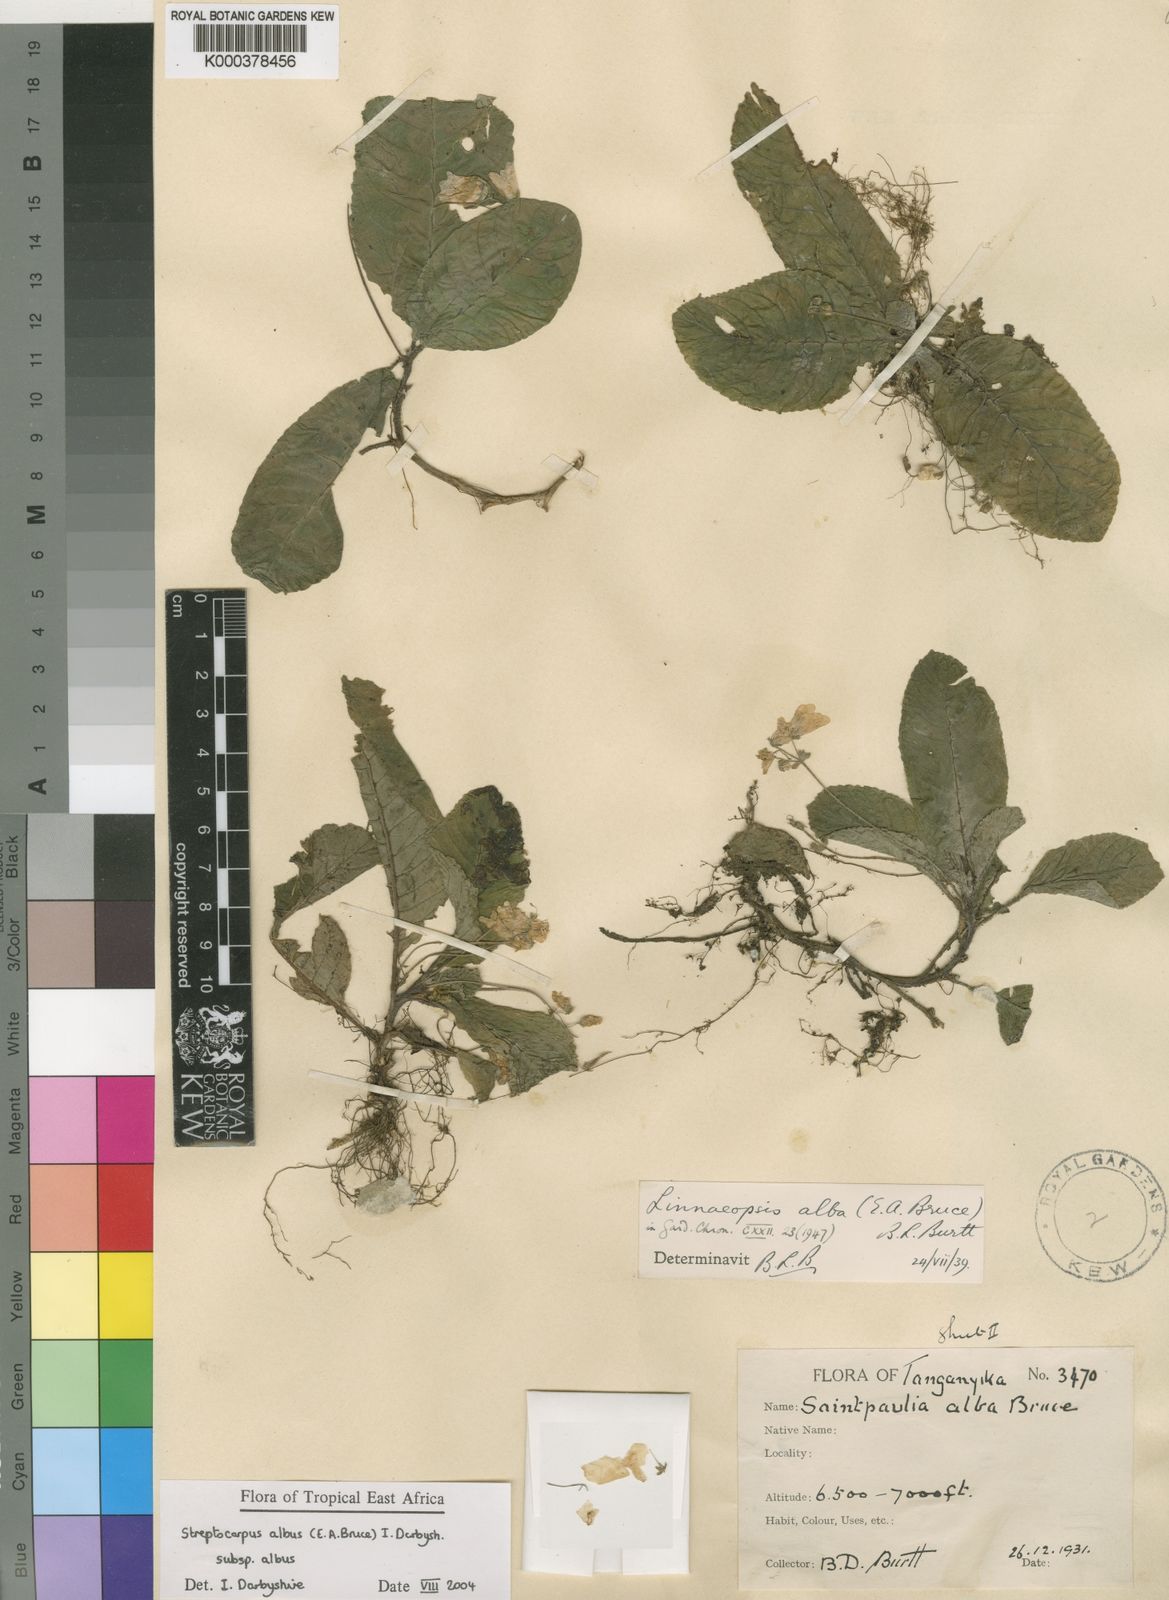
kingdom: Plantae
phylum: Tracheophyta
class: Magnoliopsida
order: Lamiales
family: Gesneriaceae
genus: Streptocarpus
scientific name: Streptocarpus albus
